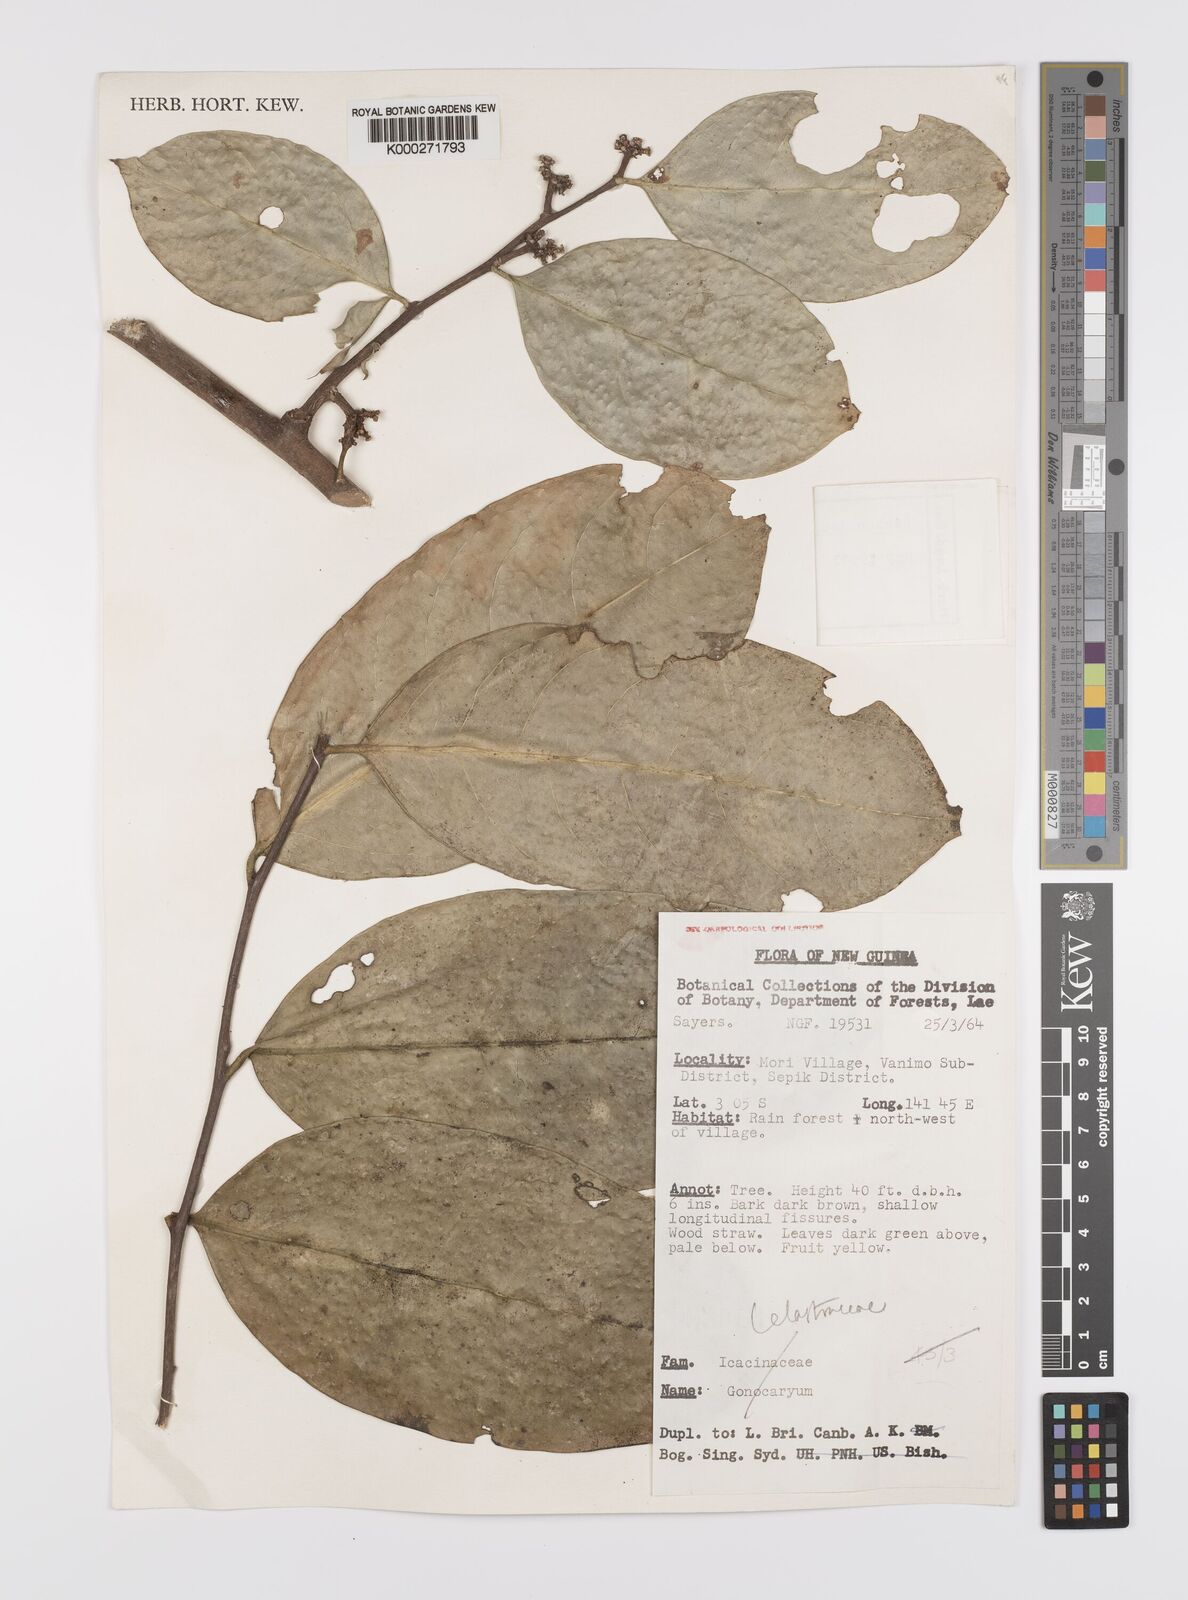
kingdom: Plantae
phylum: Tracheophyta
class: Magnoliopsida
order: Celastrales
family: Celastraceae
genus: Siphonodon
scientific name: Siphonodon celastrineus
